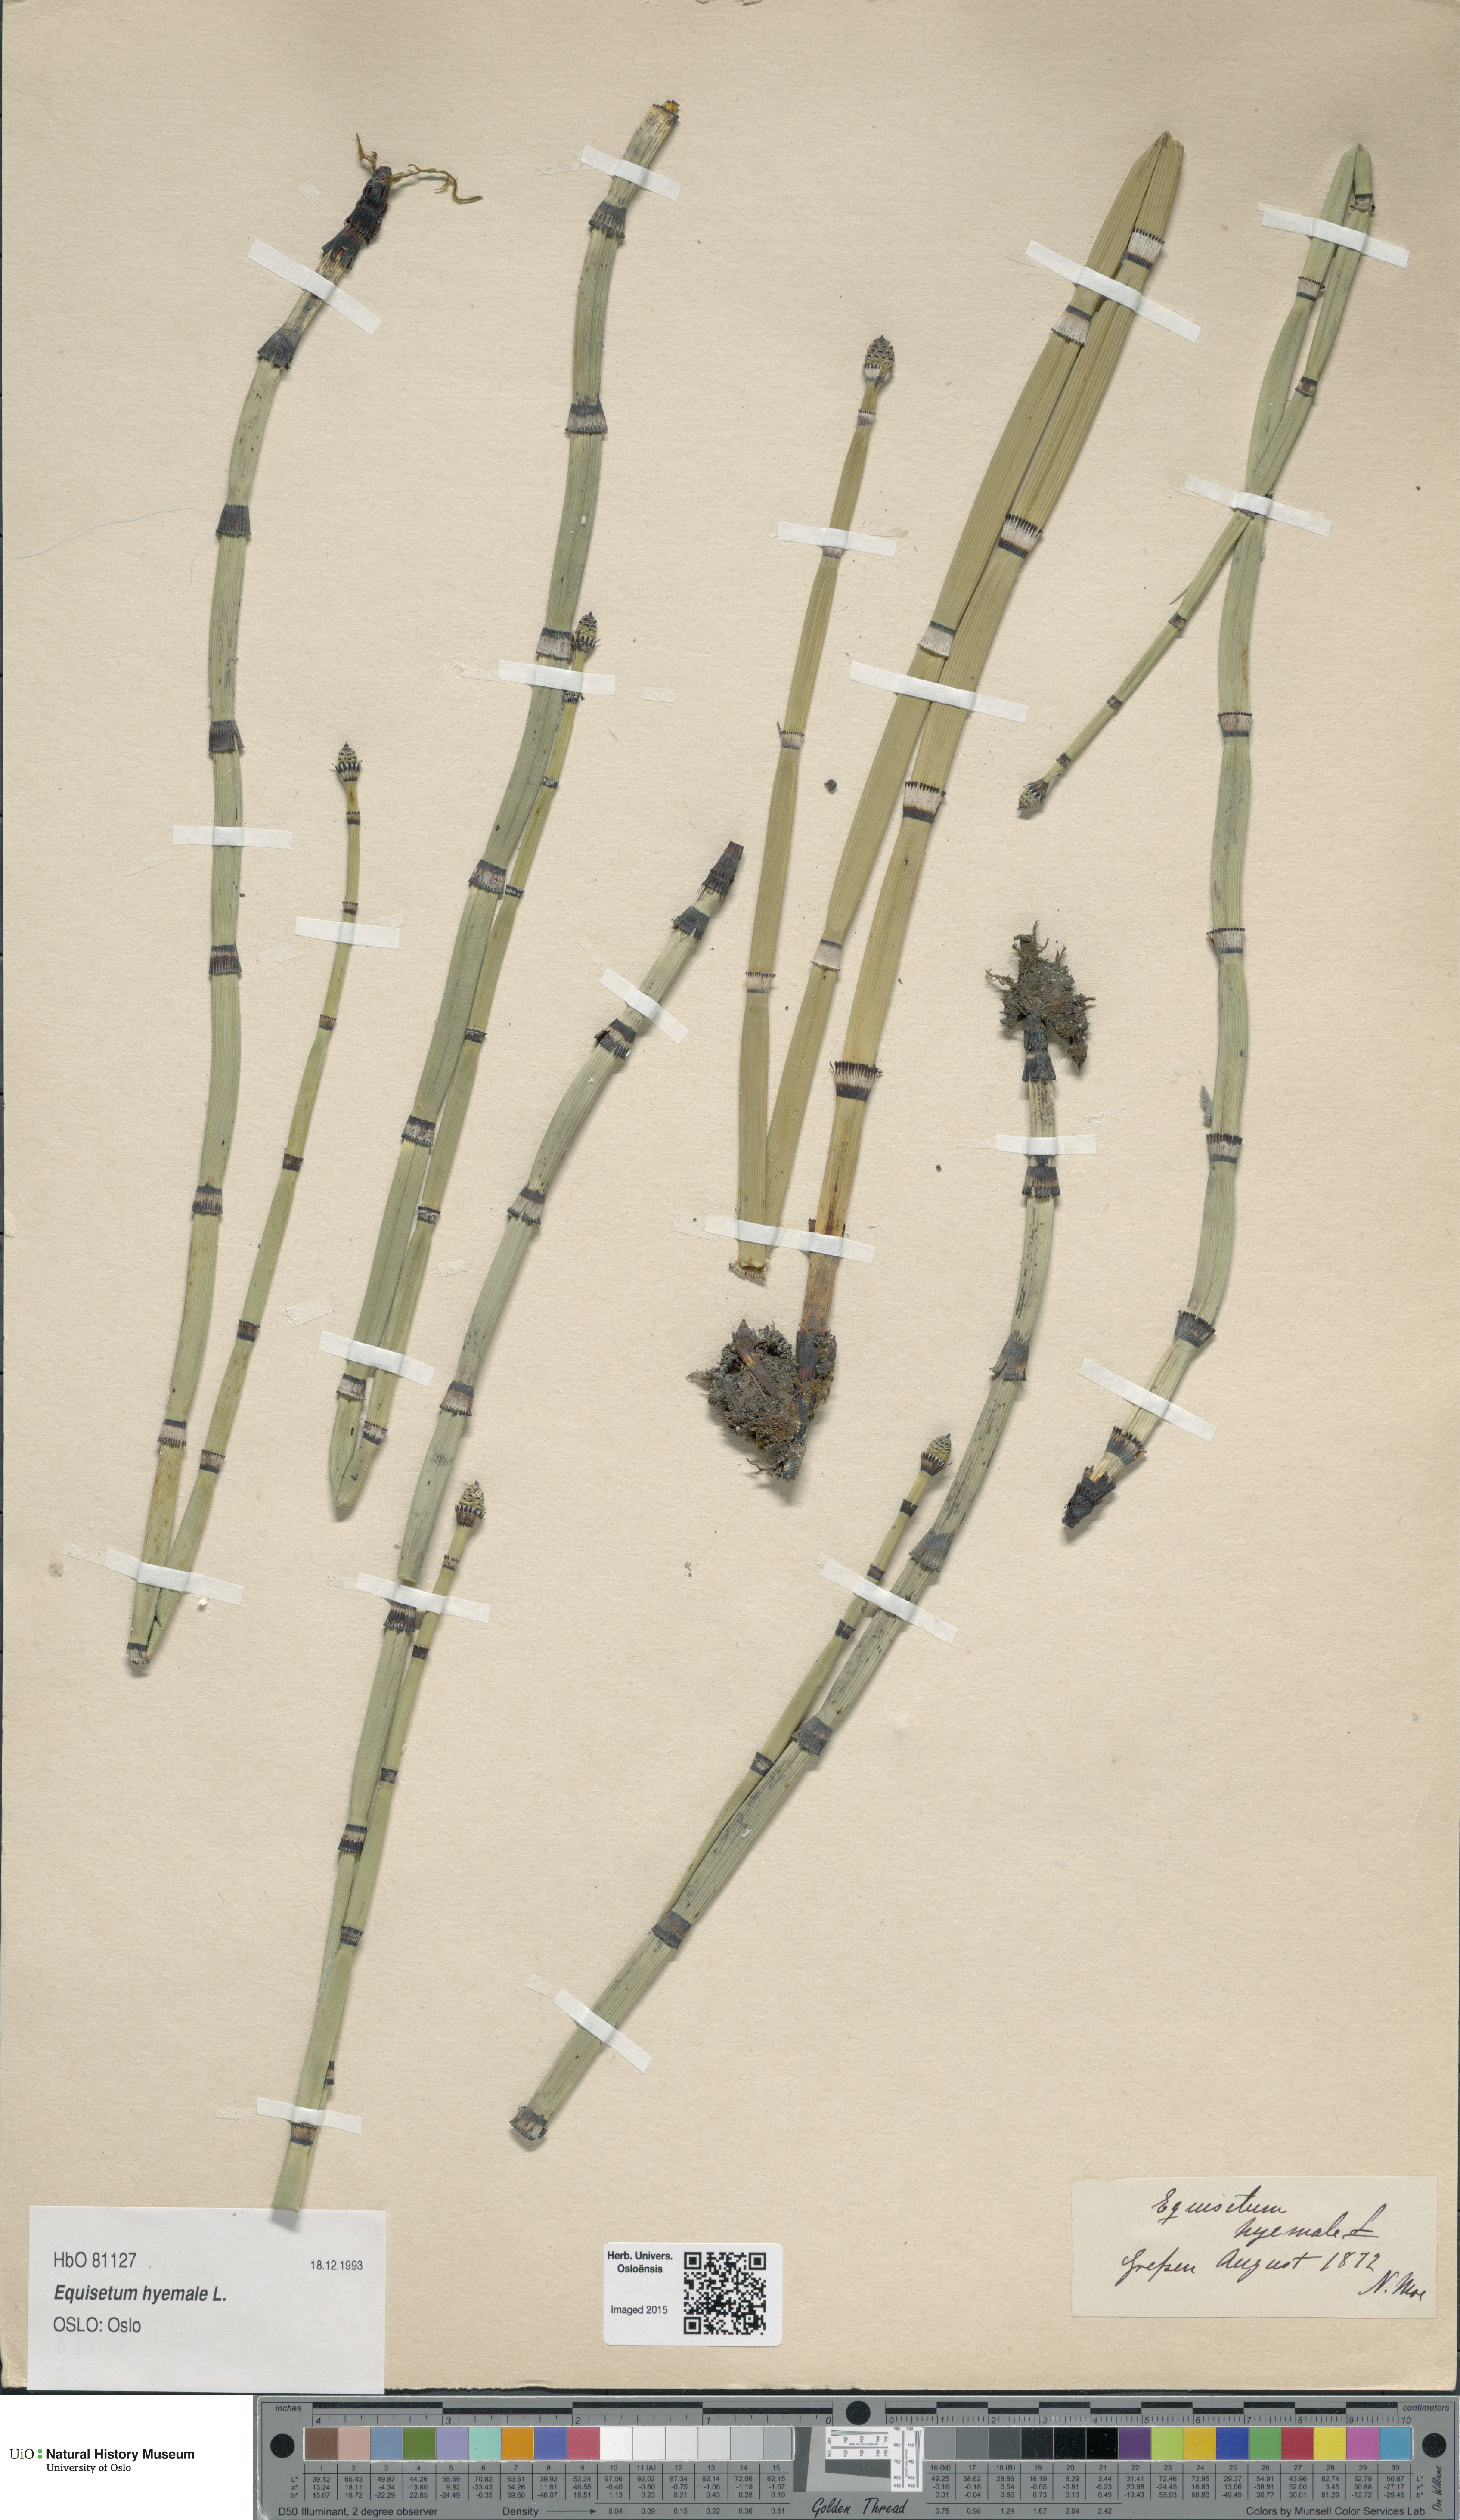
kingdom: Plantae
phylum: Tracheophyta
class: Polypodiopsida
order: Equisetales
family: Equisetaceae
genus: Equisetum
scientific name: Equisetum hyemale
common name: Rough horsetail
